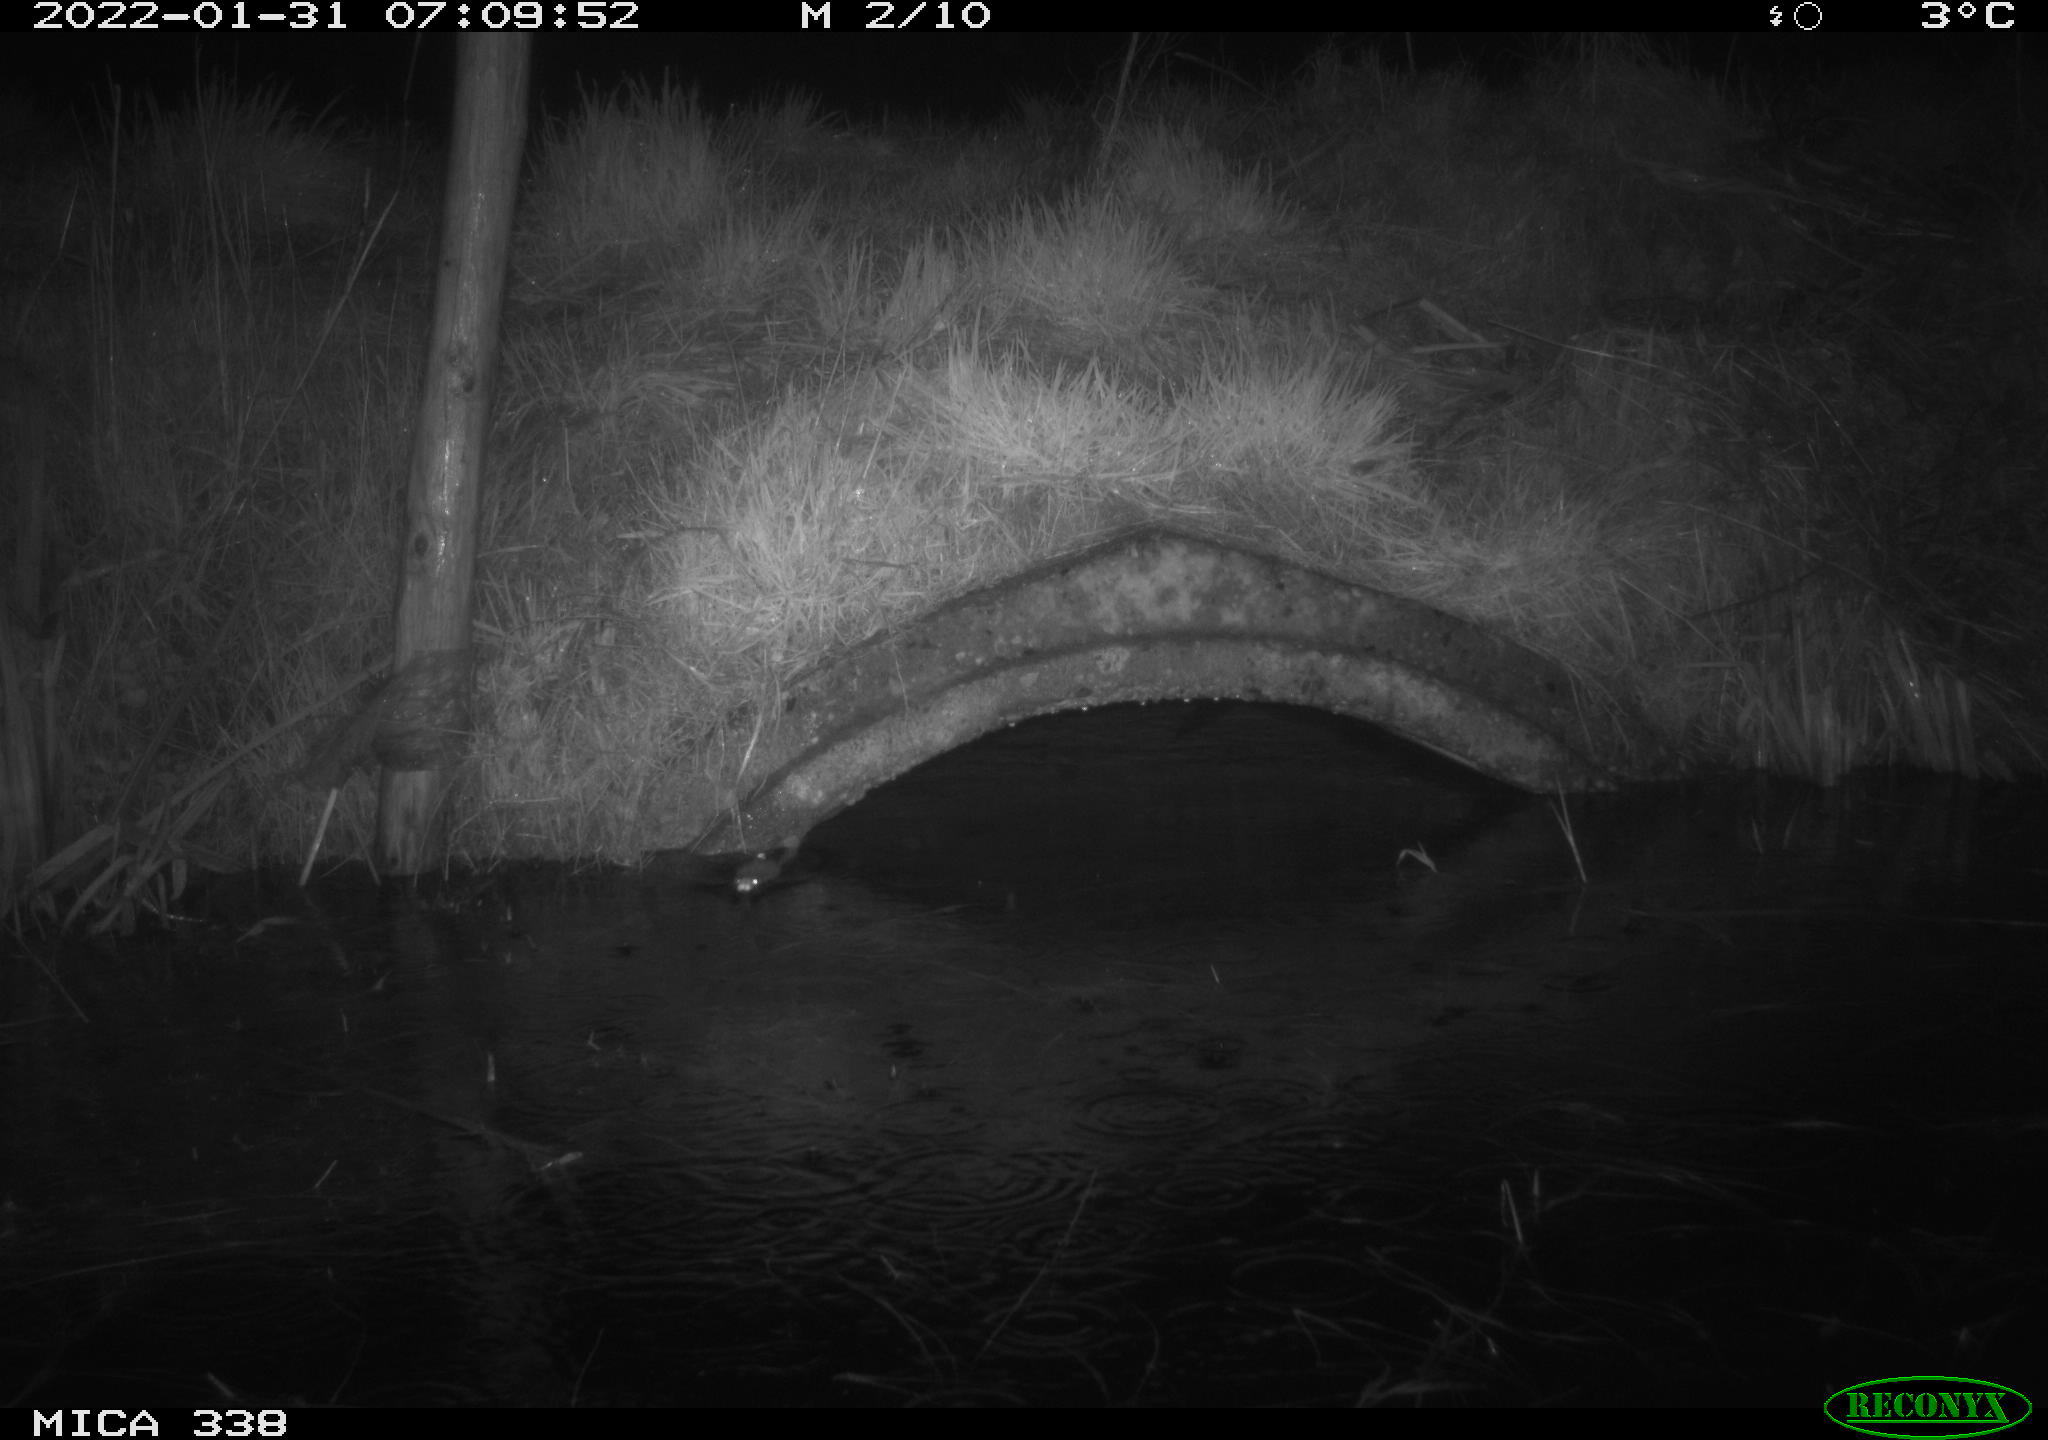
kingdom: Animalia
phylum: Chordata
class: Mammalia
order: Rodentia
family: Muridae
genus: Rattus
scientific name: Rattus norvegicus
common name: Brown rat
